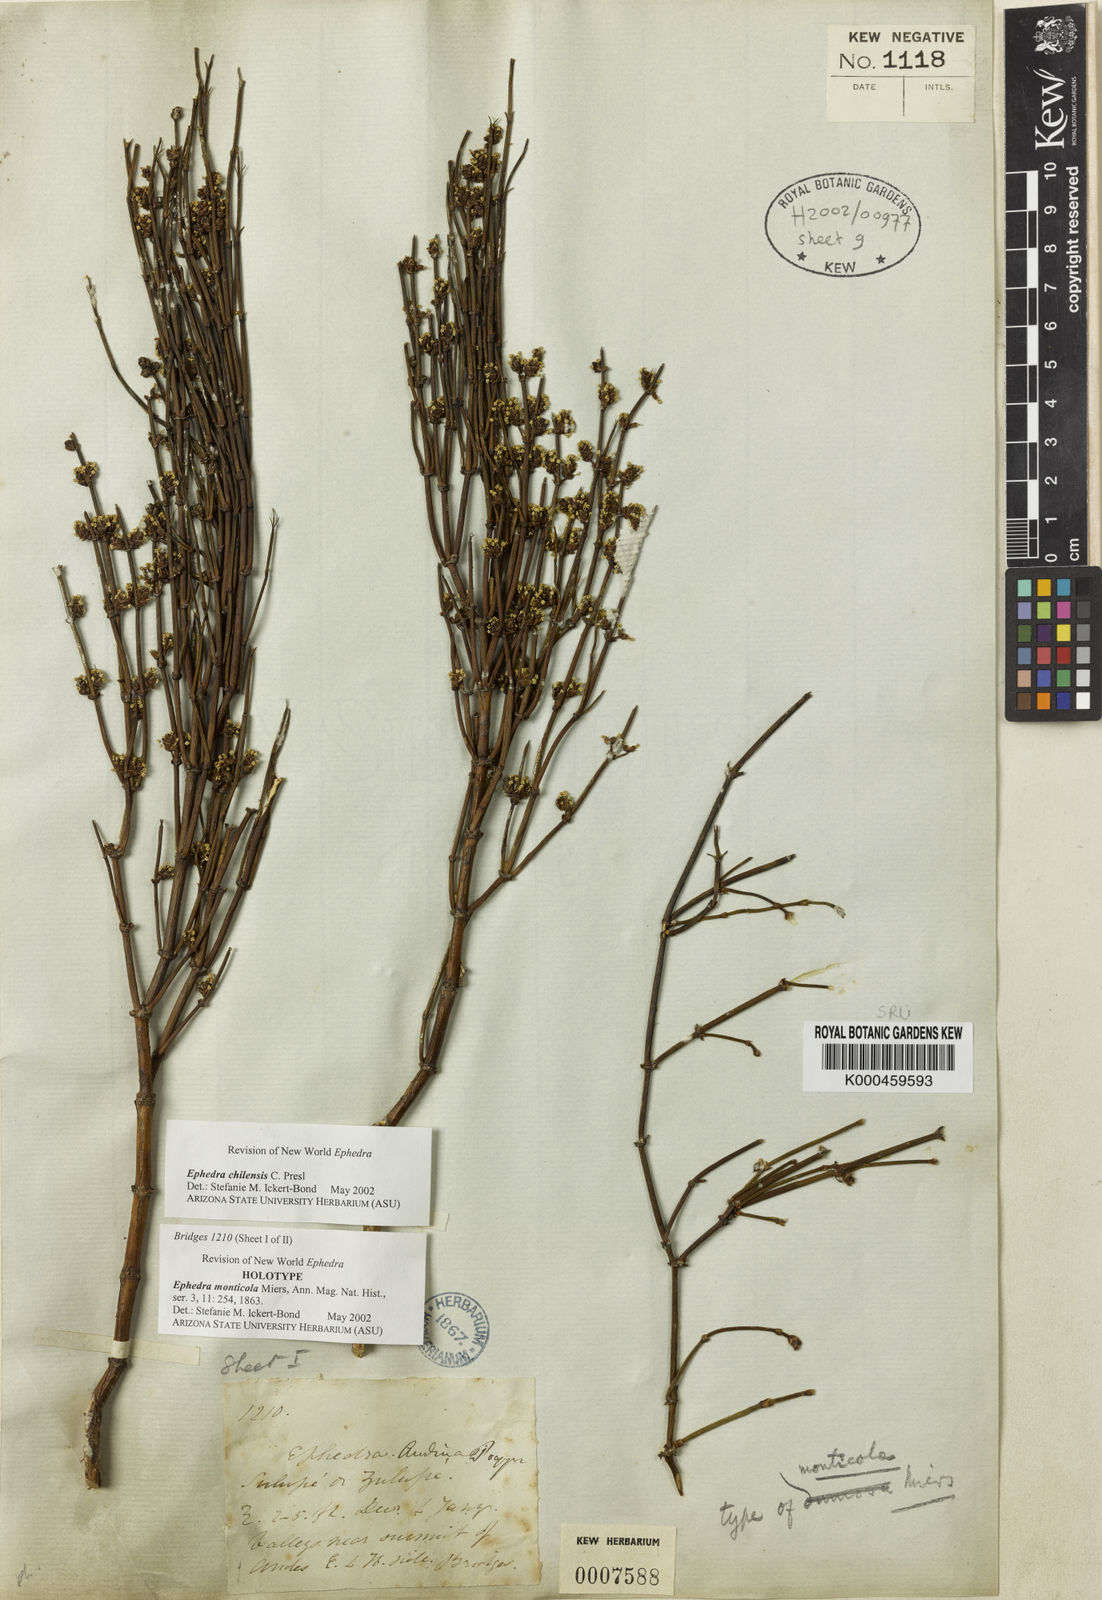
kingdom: Plantae
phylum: Tracheophyta
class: Gnetopsida
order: Ephedrales
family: Ephedraceae
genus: Ephedra
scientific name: Ephedra americana
